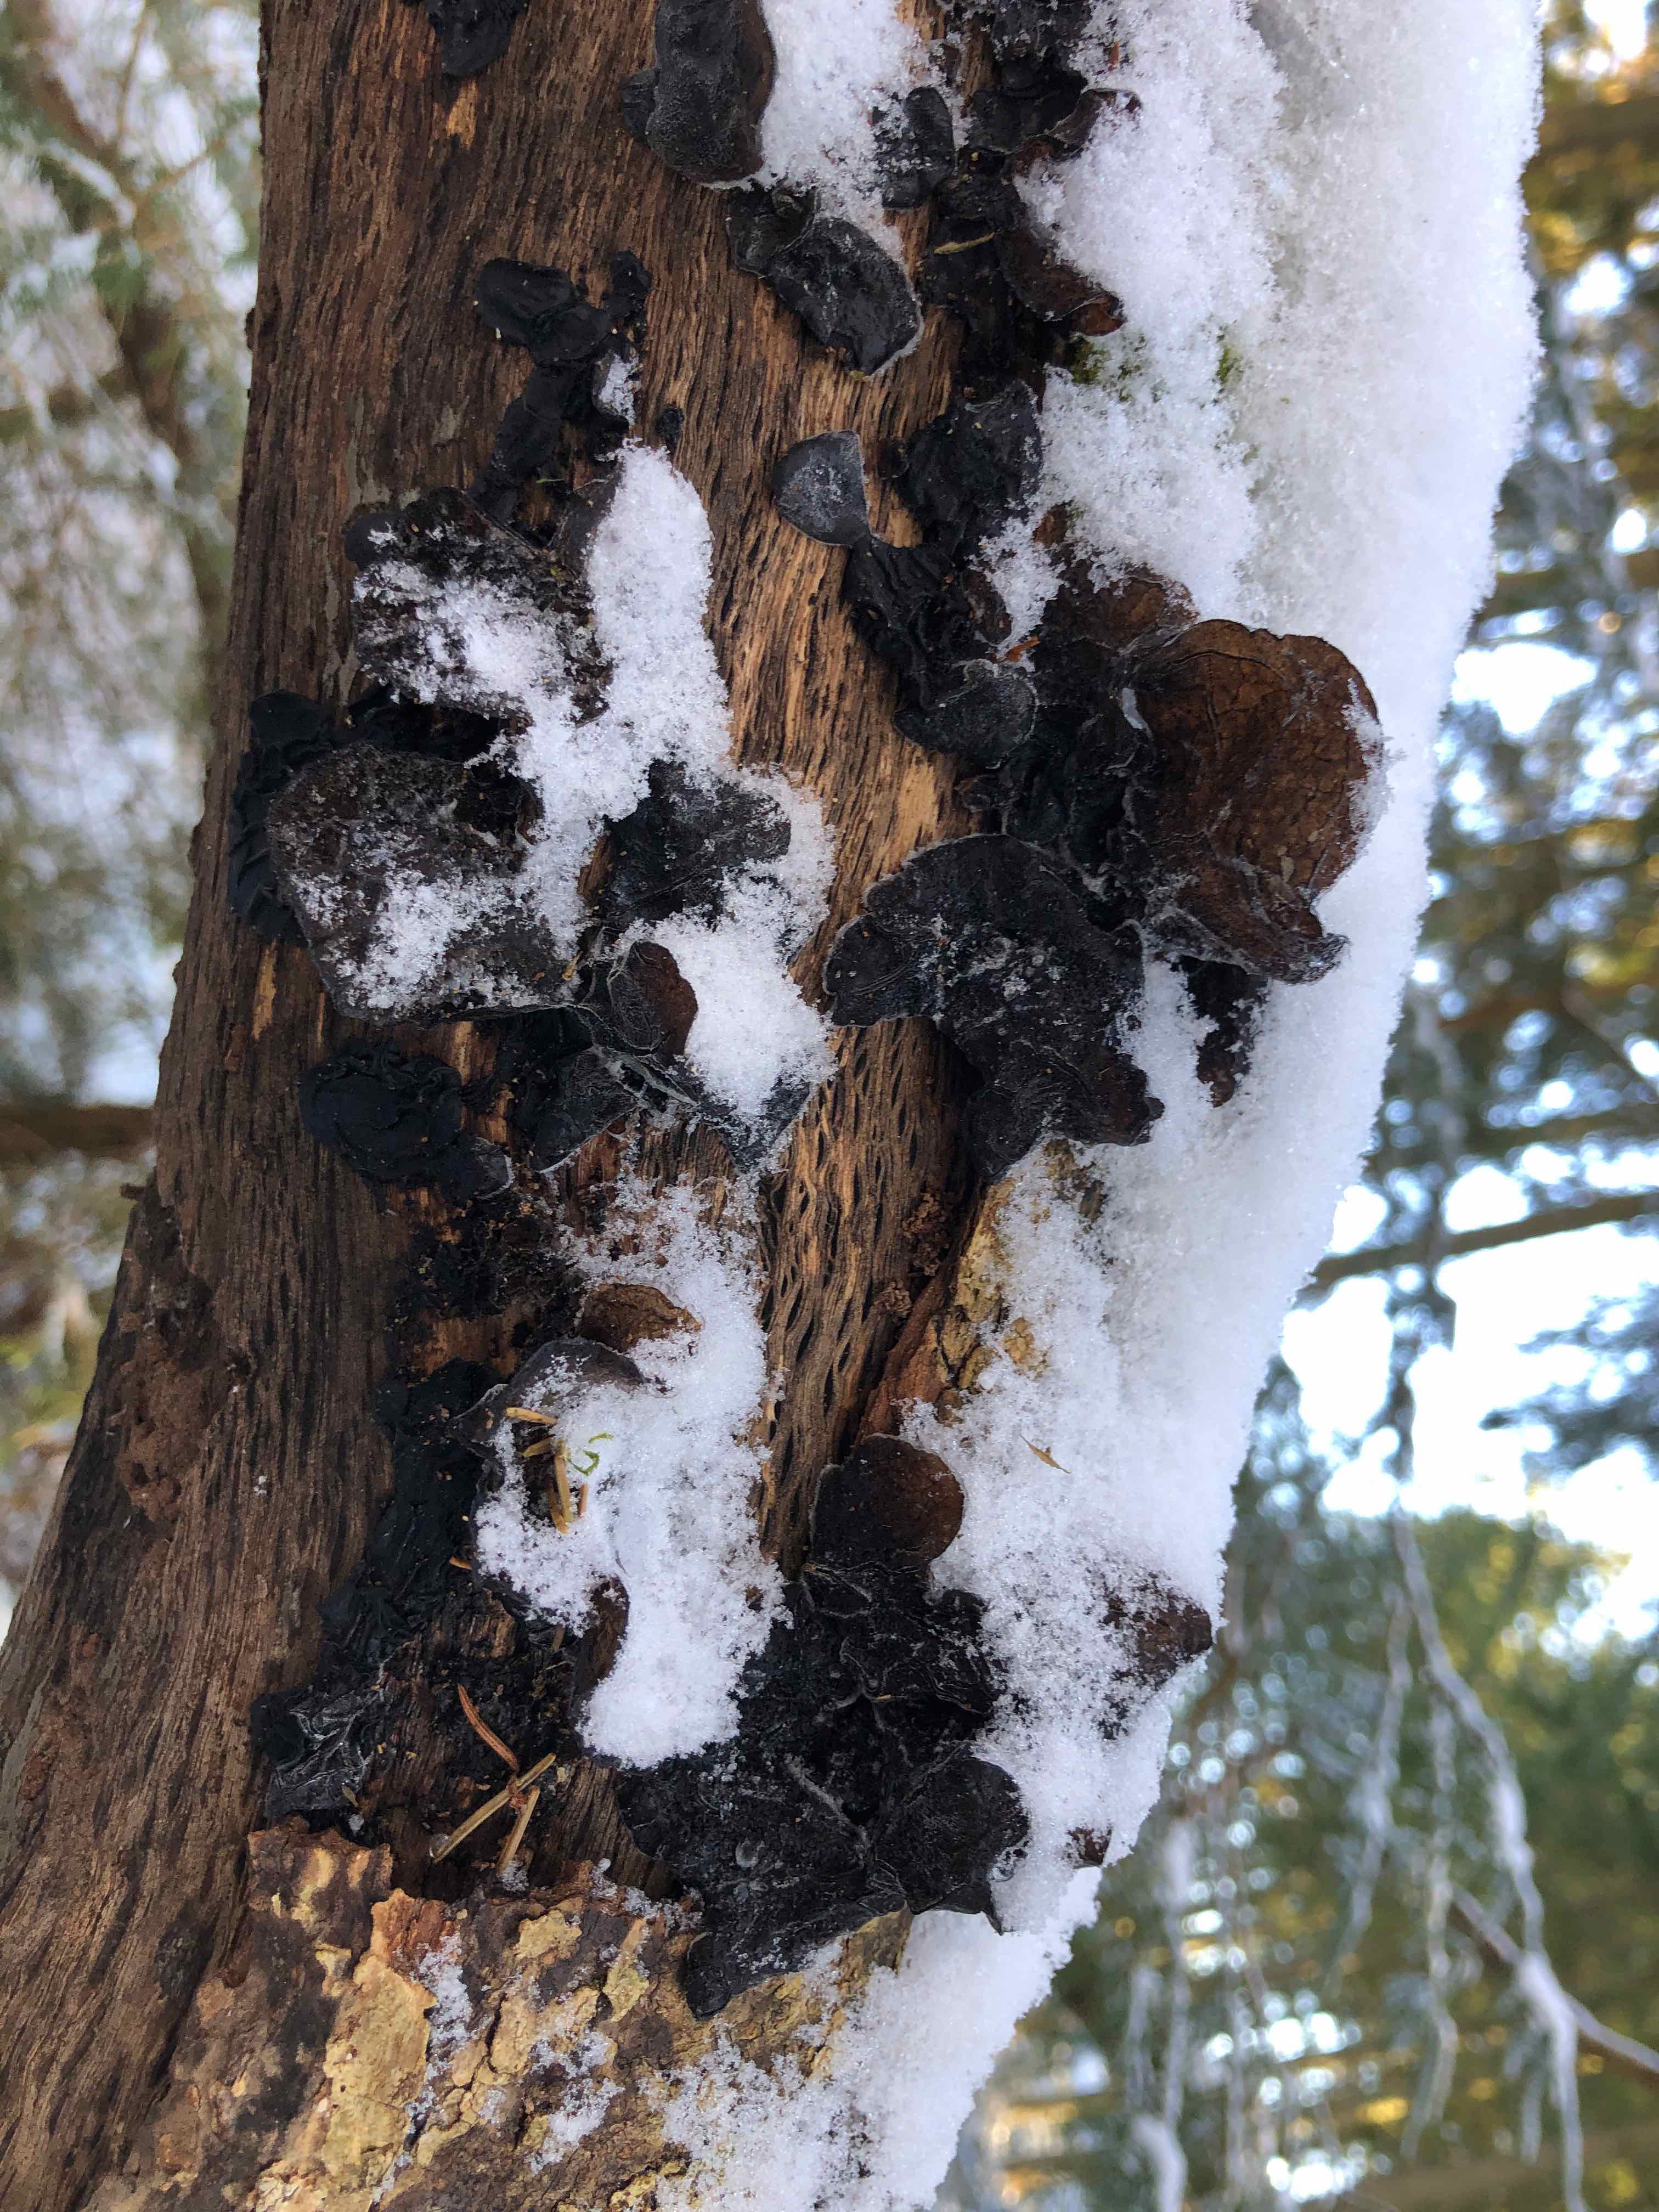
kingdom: Fungi
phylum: Basidiomycota
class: Agaricomycetes
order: Auriculariales
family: Auriculariaceae
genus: Exidia
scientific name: Exidia glandulosa
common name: ege-bævretop
